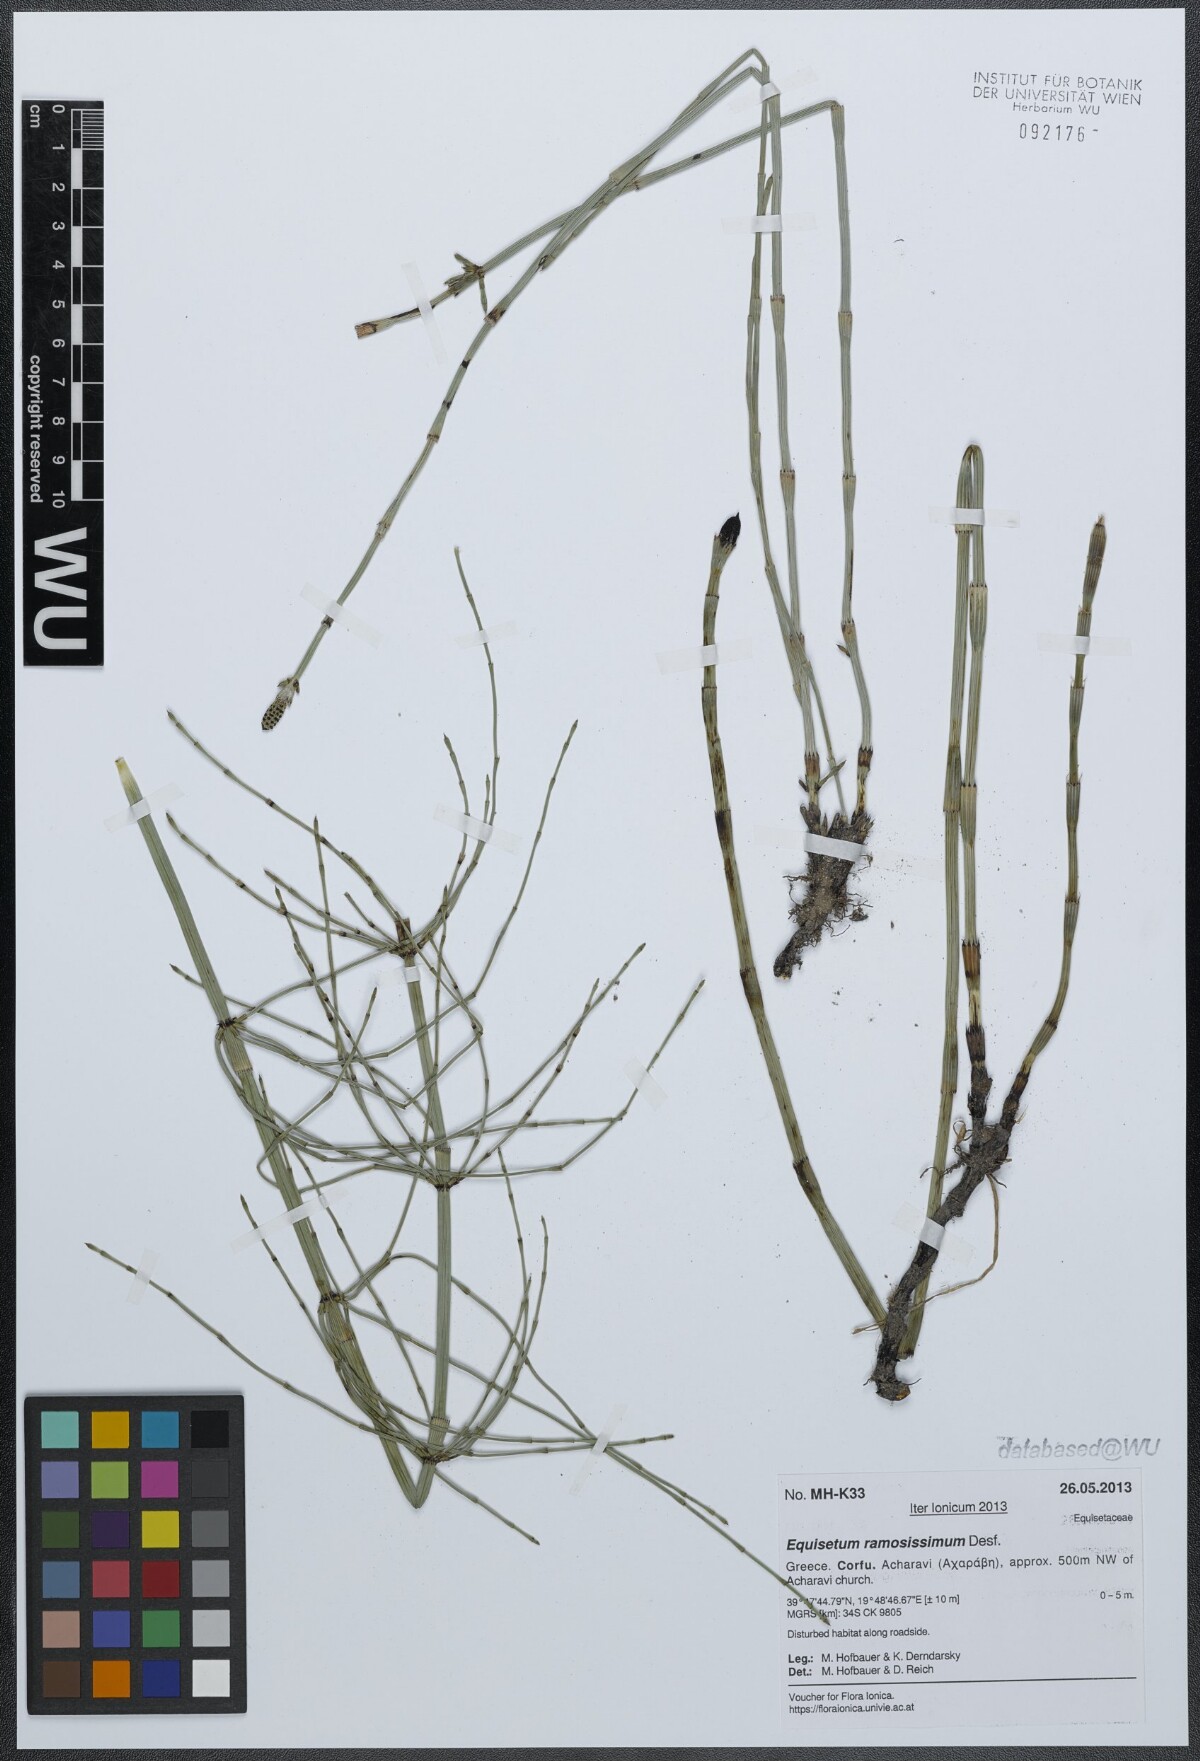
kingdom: Plantae
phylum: Tracheophyta
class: Polypodiopsida
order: Equisetales
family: Equisetaceae
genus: Equisetum
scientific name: Equisetum ramosissimum
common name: Branched horsetail
